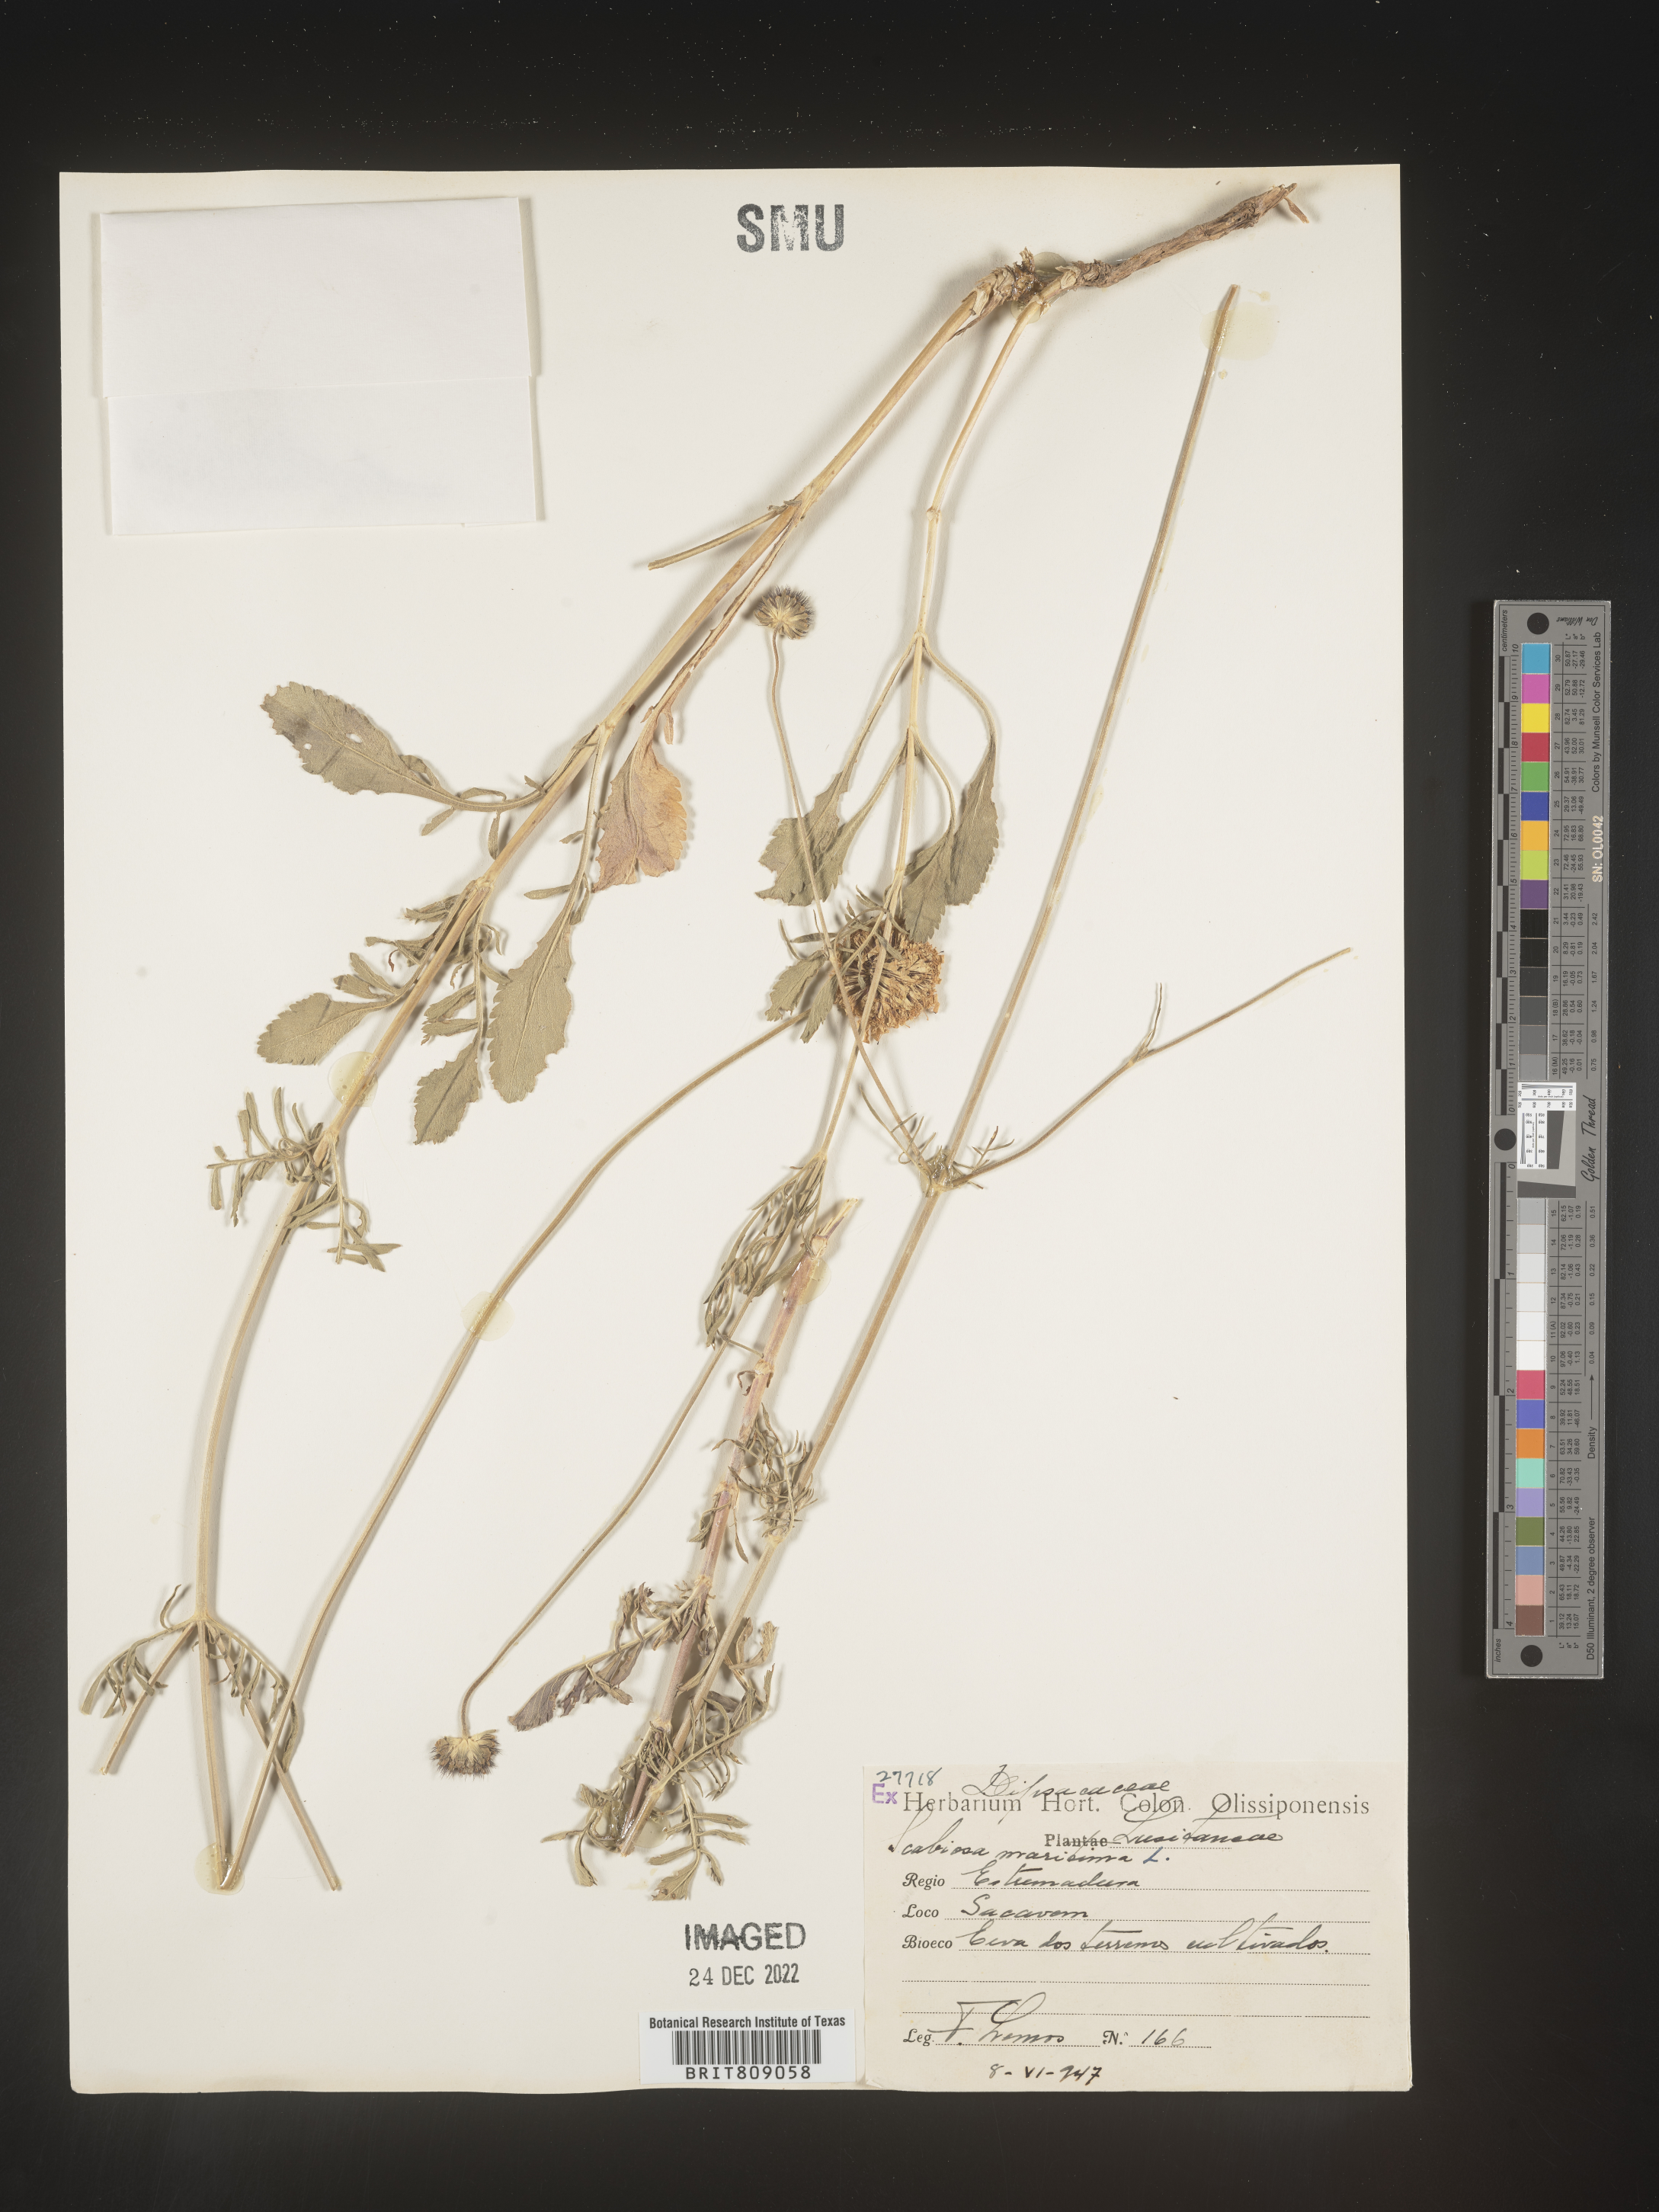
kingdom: Plantae
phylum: Tracheophyta
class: Magnoliopsida
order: Dipsacales
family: Caprifoliaceae
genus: Scabiosa
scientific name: Scabiosa
